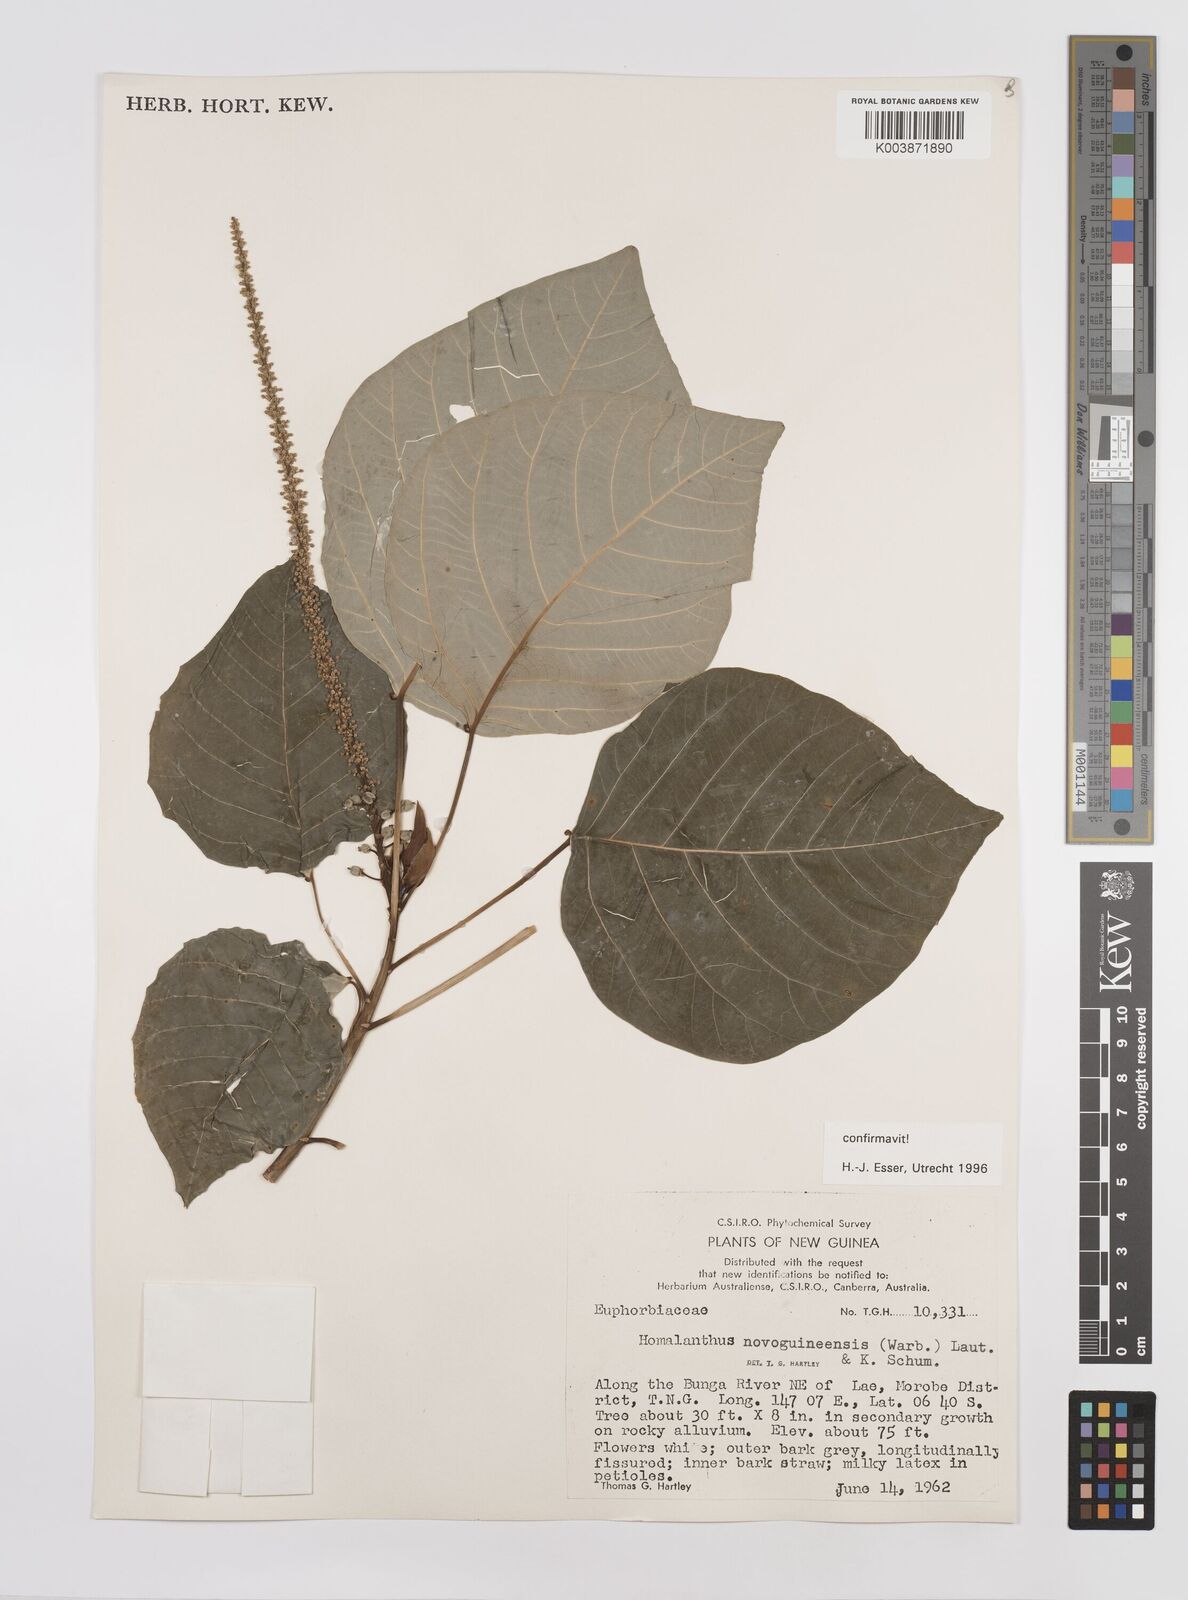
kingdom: Plantae
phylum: Tracheophyta
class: Magnoliopsida
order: Malpighiales
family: Euphorbiaceae
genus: Homalanthus
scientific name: Homalanthus novoguineensis
